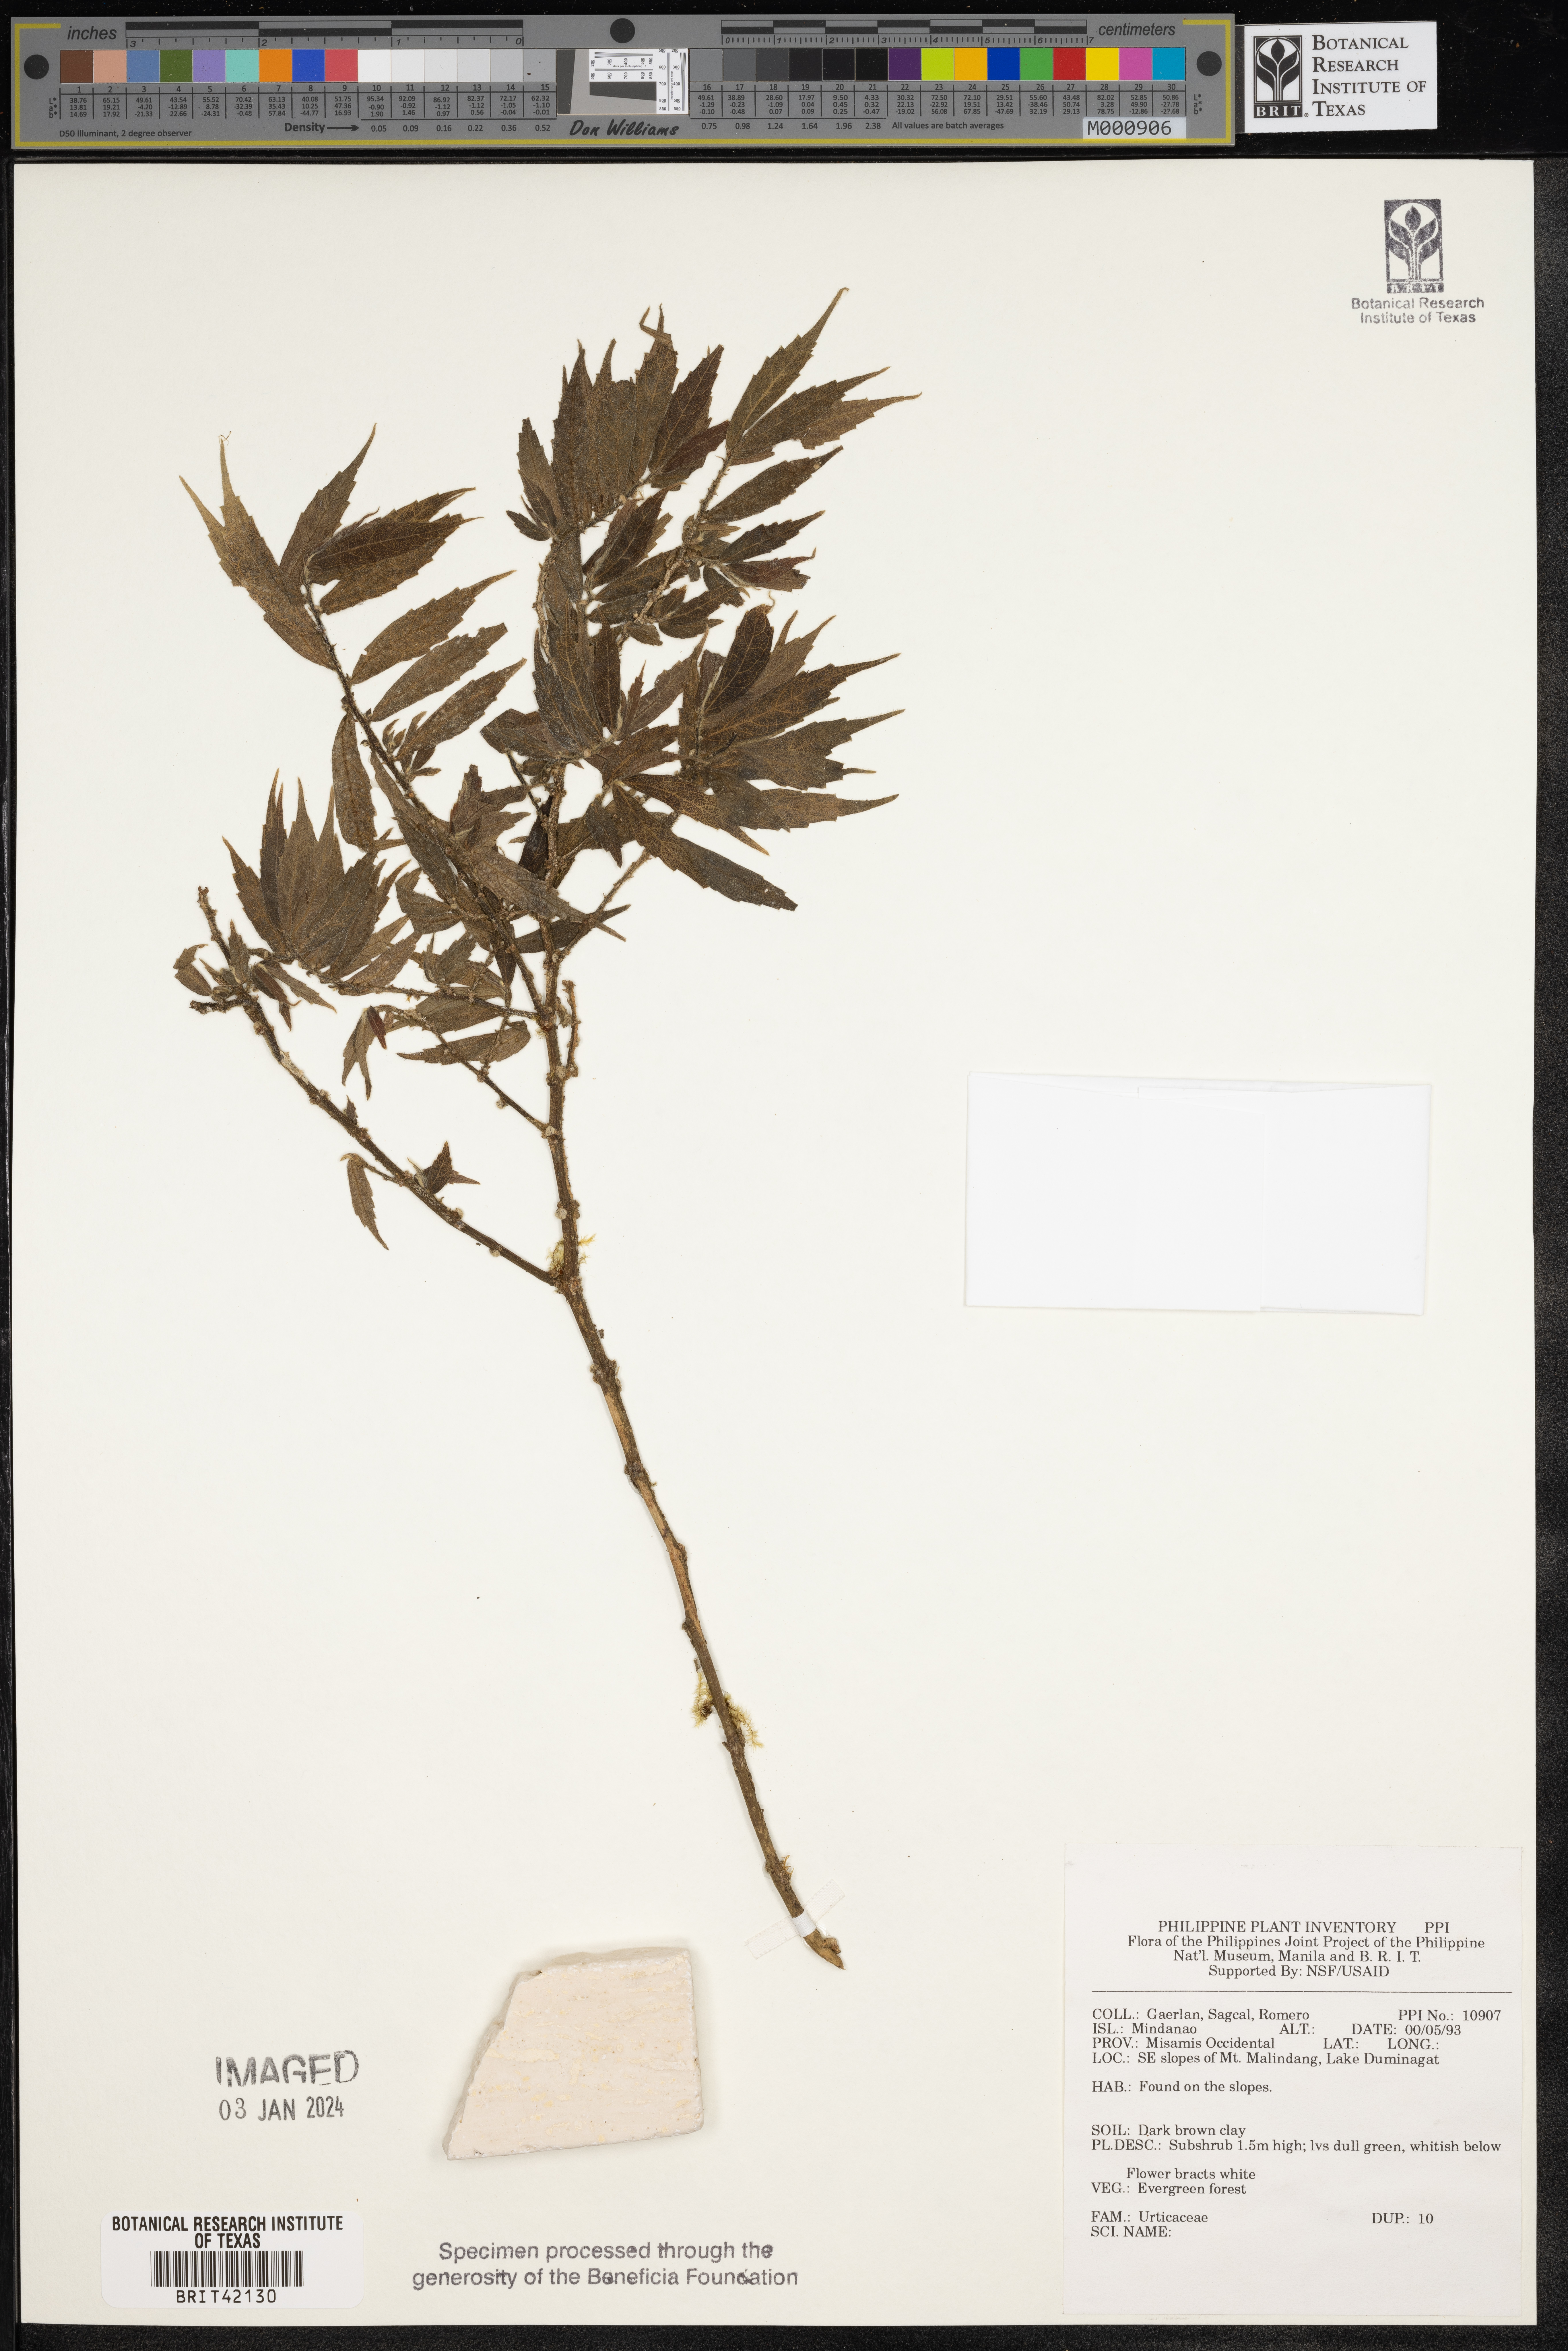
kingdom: Plantae
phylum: Tracheophyta
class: Magnoliopsida
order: Rosales
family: Urticaceae
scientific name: Urticaceae
